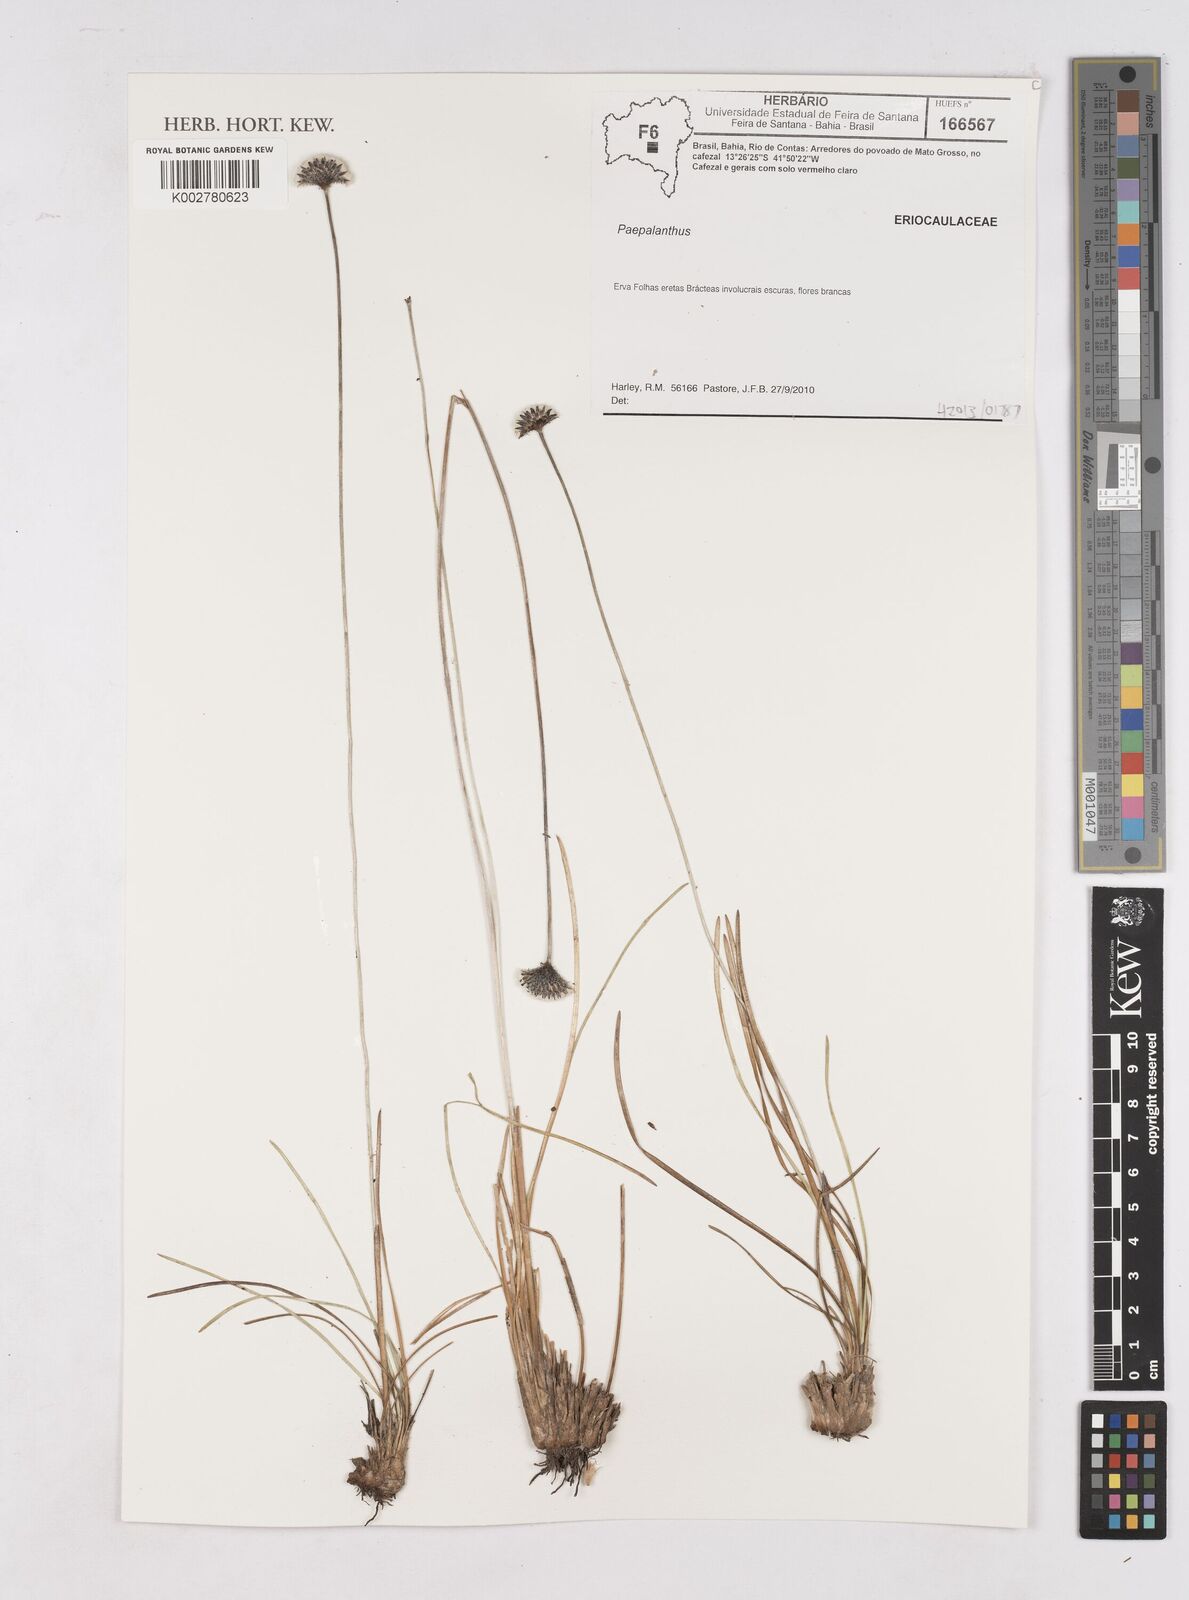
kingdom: Plantae
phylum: Tracheophyta
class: Liliopsida
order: Poales
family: Eriocaulaceae
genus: Paepalanthus
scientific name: Paepalanthus
